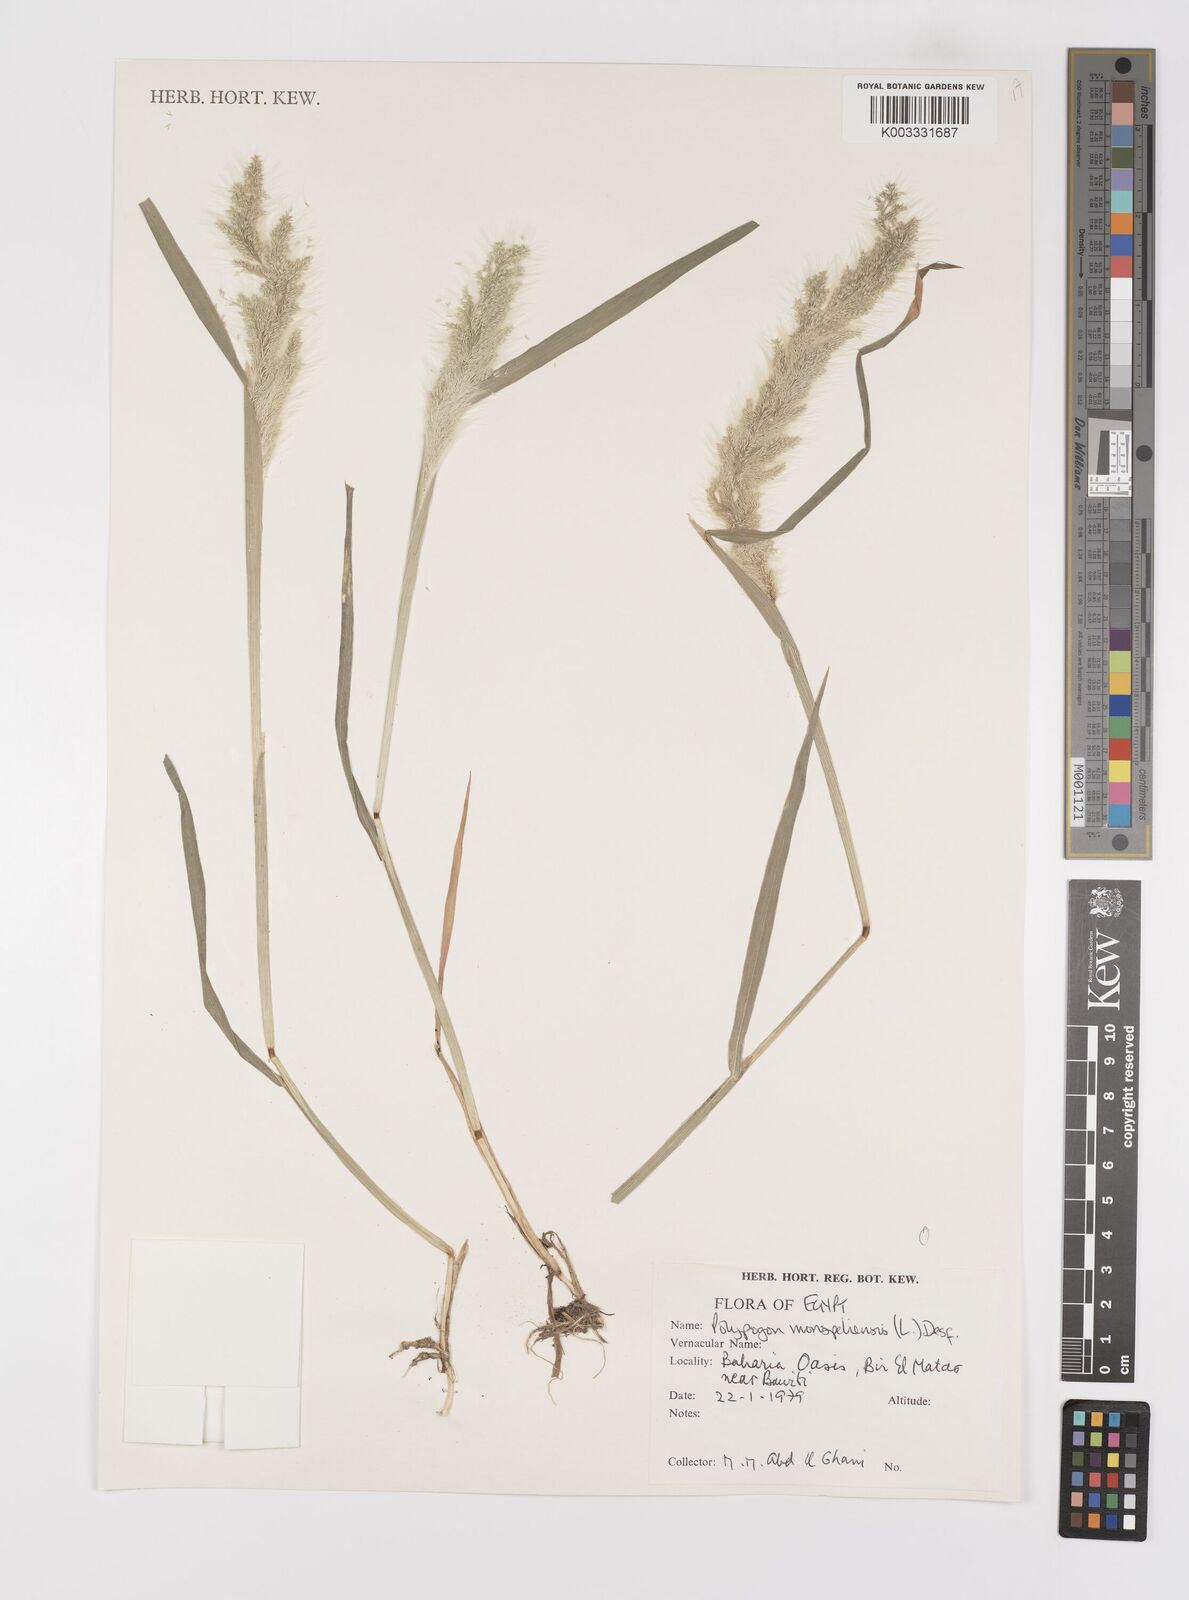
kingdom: Plantae
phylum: Tracheophyta
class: Liliopsida
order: Poales
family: Poaceae
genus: Polypogon
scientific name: Polypogon monspeliensis
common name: Annual rabbitsfoot grass
